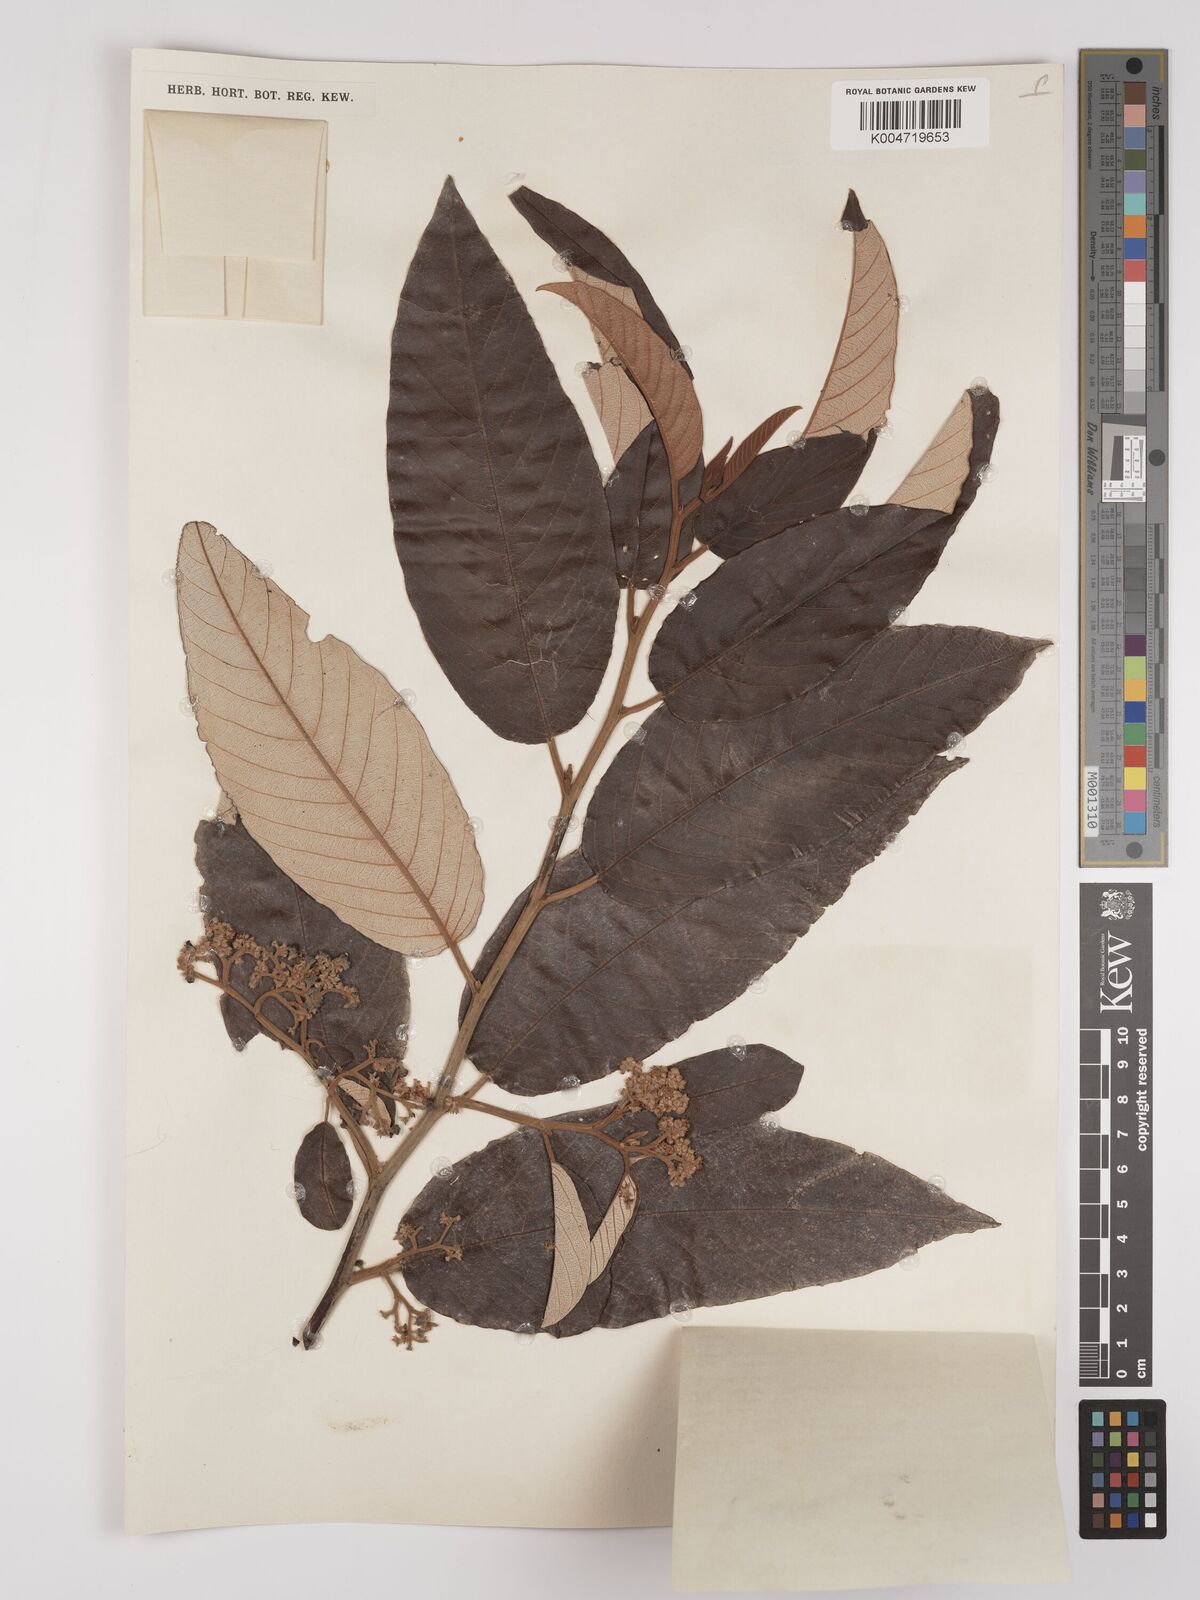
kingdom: Plantae
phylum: Tracheophyta
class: Magnoliopsida
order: Rosales
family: Rhamnaceae
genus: Alphitonia
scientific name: Alphitonia
